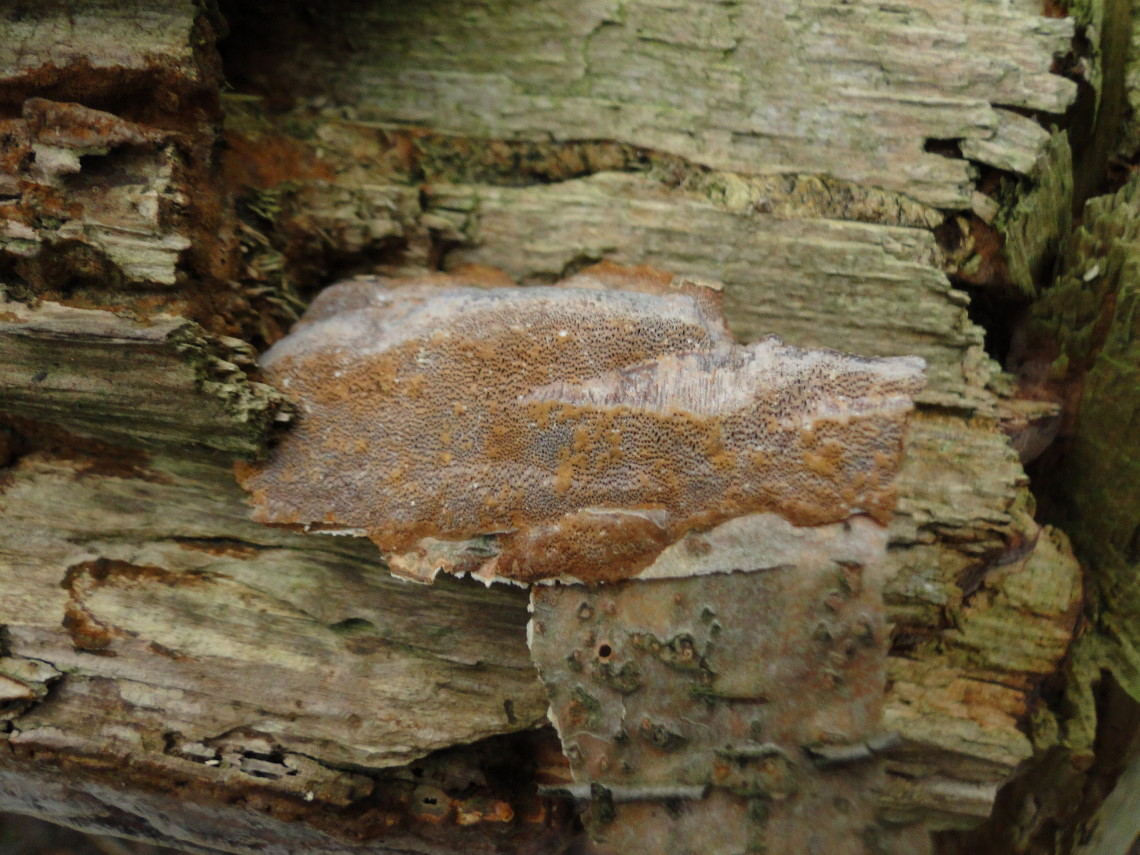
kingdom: Fungi
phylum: Basidiomycota
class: Agaricomycetes
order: Hymenochaetales
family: Hymenochaetaceae
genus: Fuscoporia
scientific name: Fuscoporia ferruginosa
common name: rustbrun ildporesvamp
